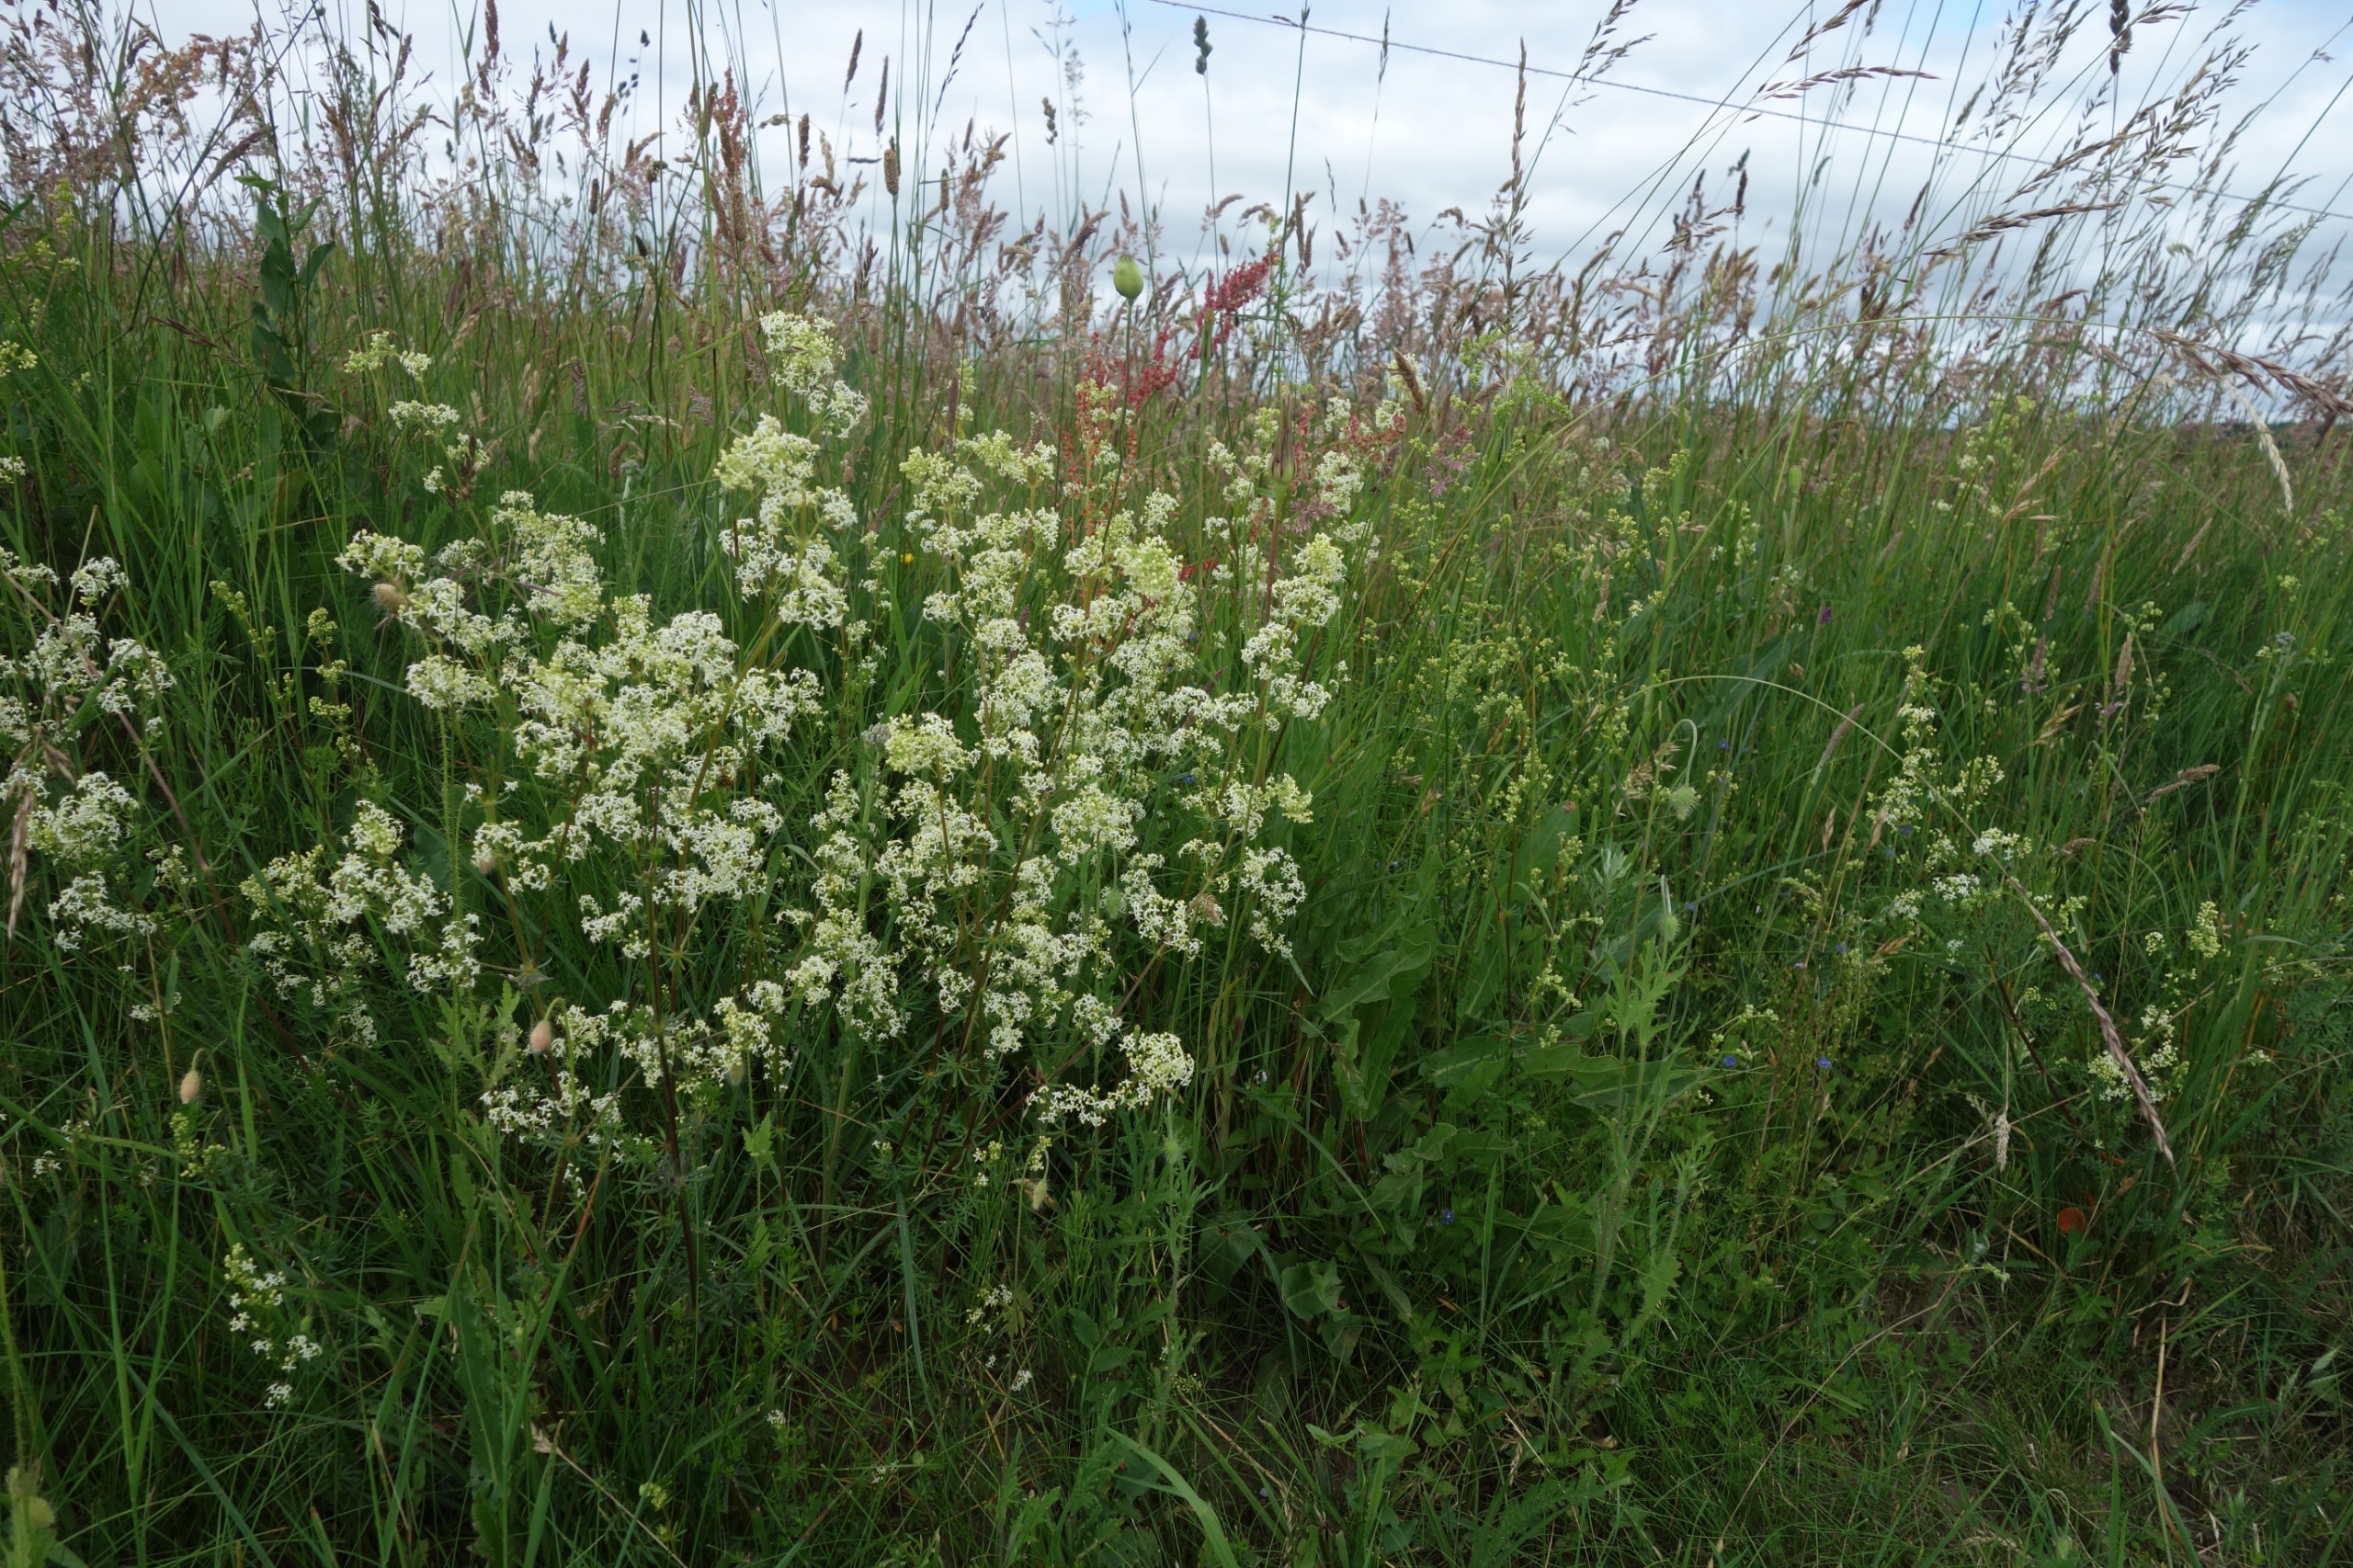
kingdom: Plantae
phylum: Tracheophyta
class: Magnoliopsida
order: Gentianales
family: Rubiaceae
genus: Galium
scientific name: Galium mollugo
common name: Hvid snerre
